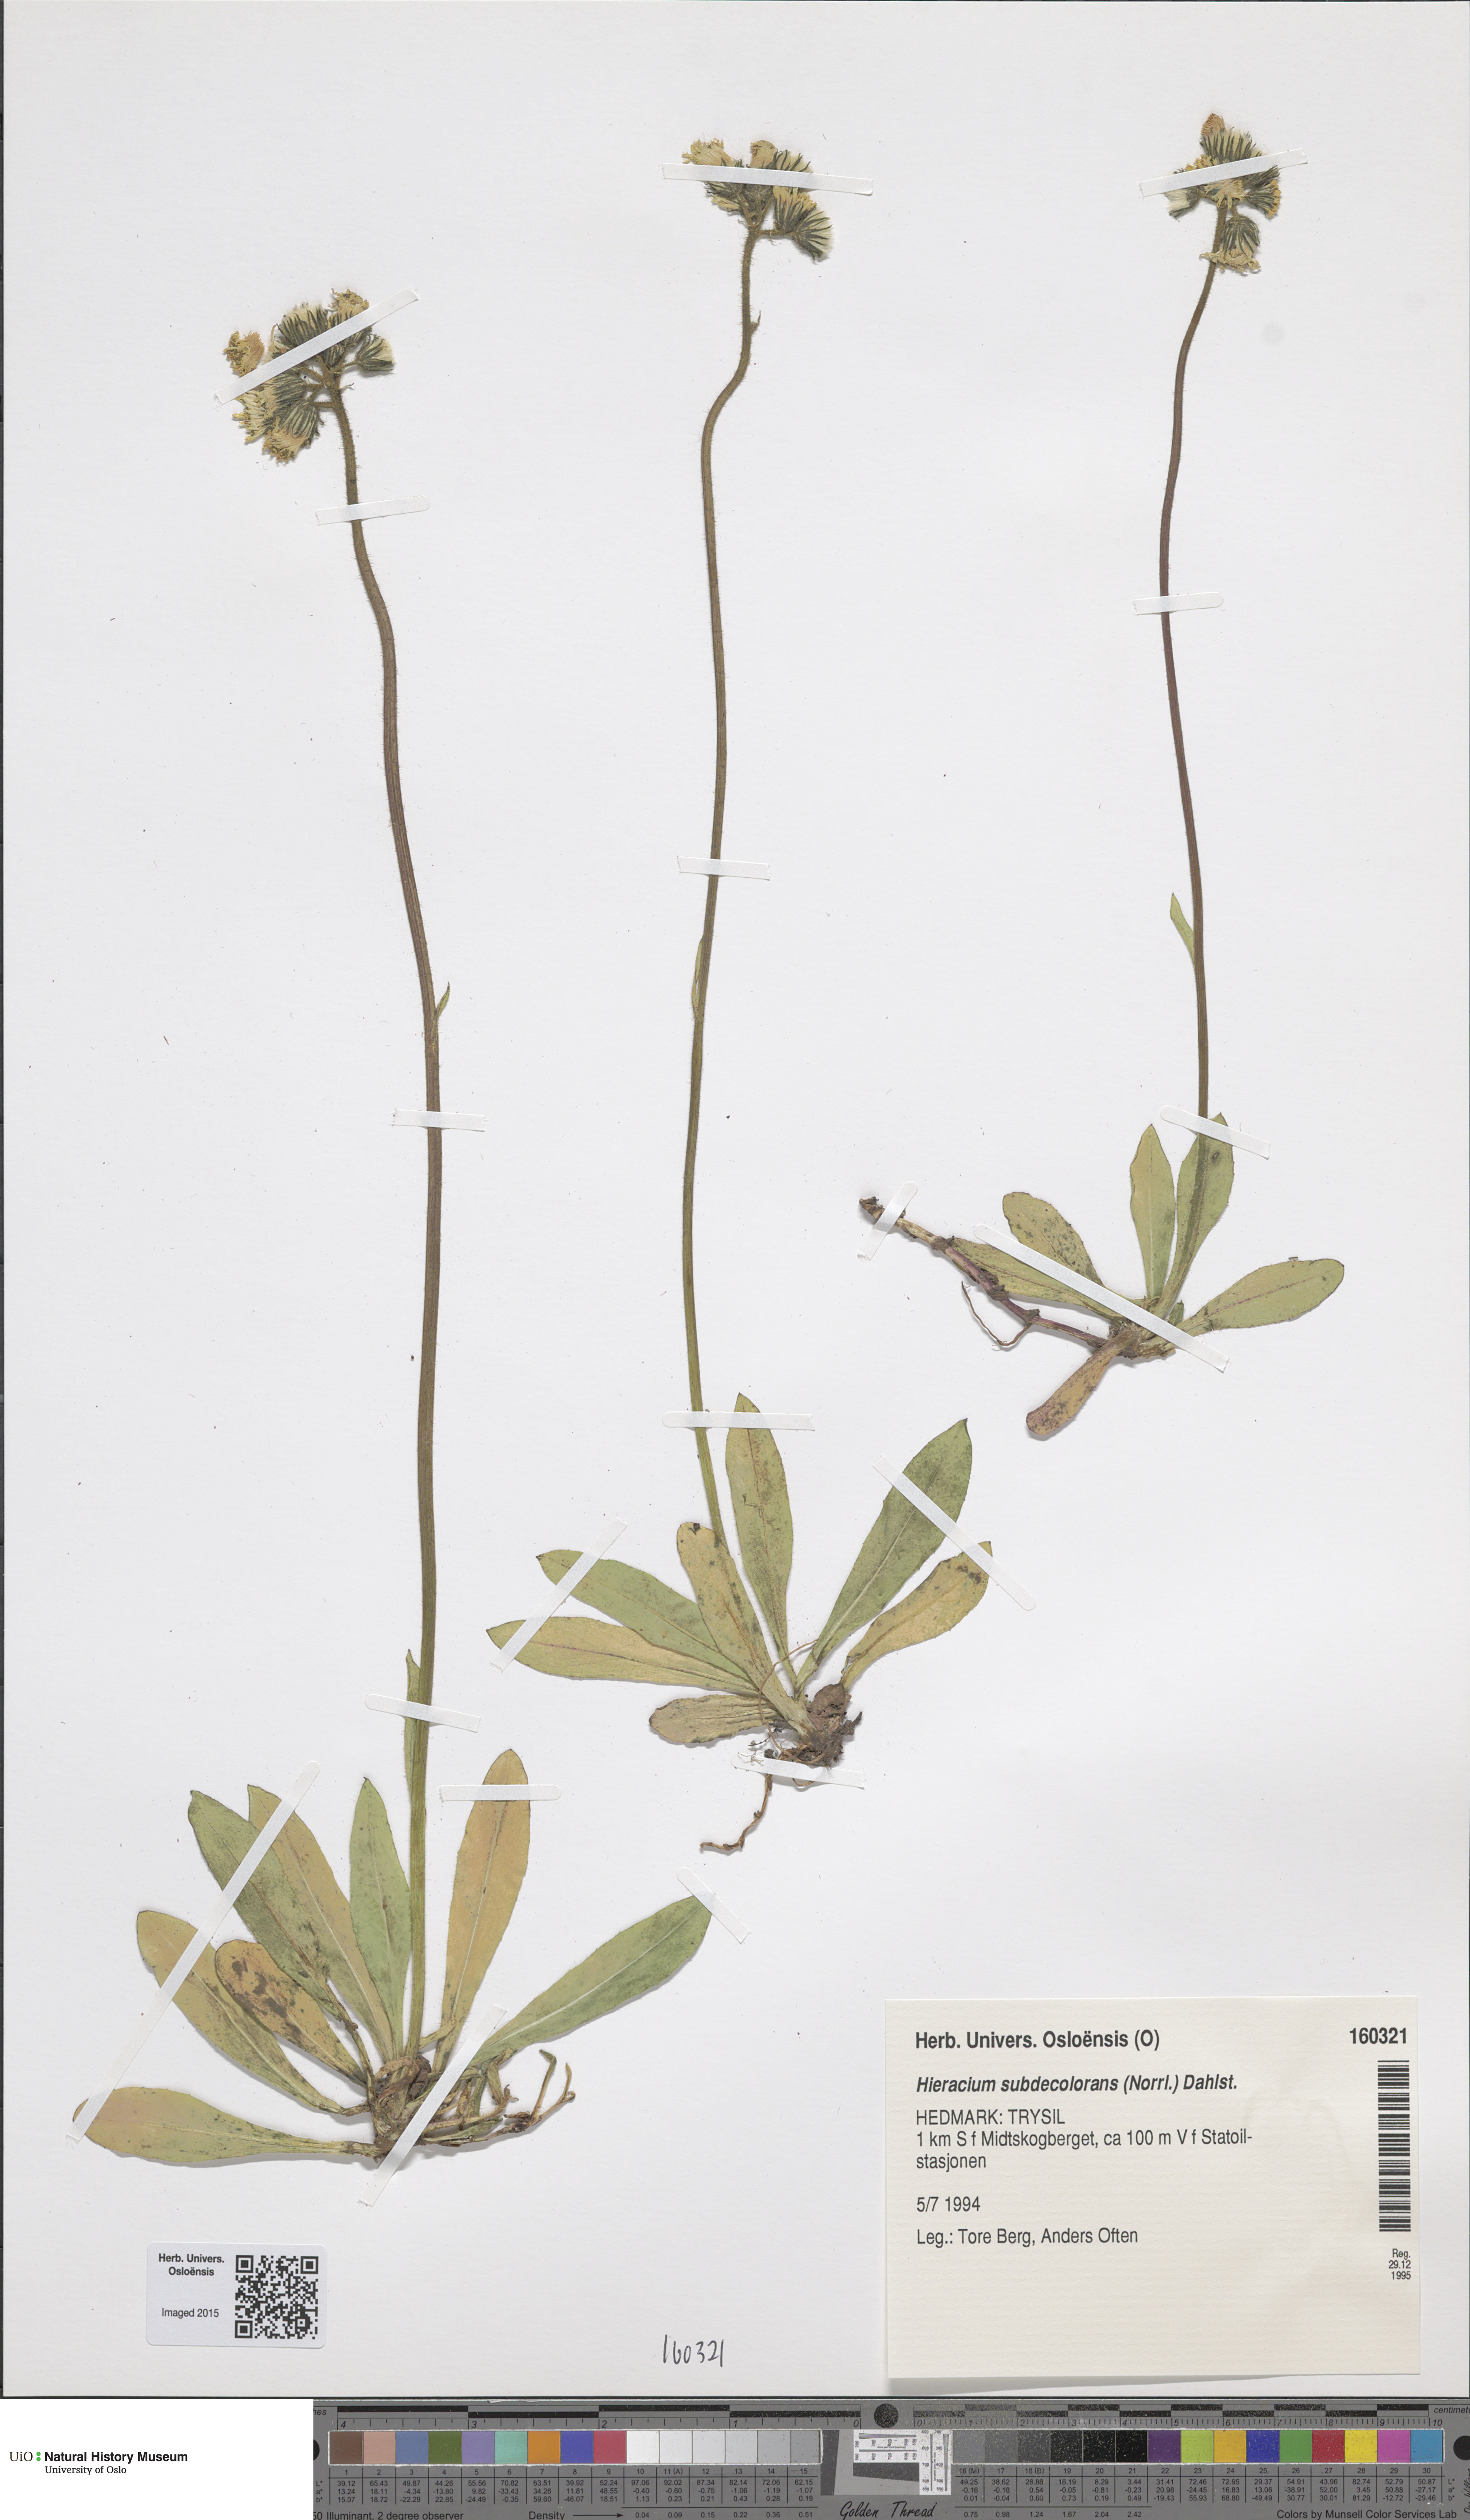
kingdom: Plantae
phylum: Tracheophyta
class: Magnoliopsida
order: Asterales
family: Asteraceae
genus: Pilosella
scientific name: Pilosella subdecolorans
